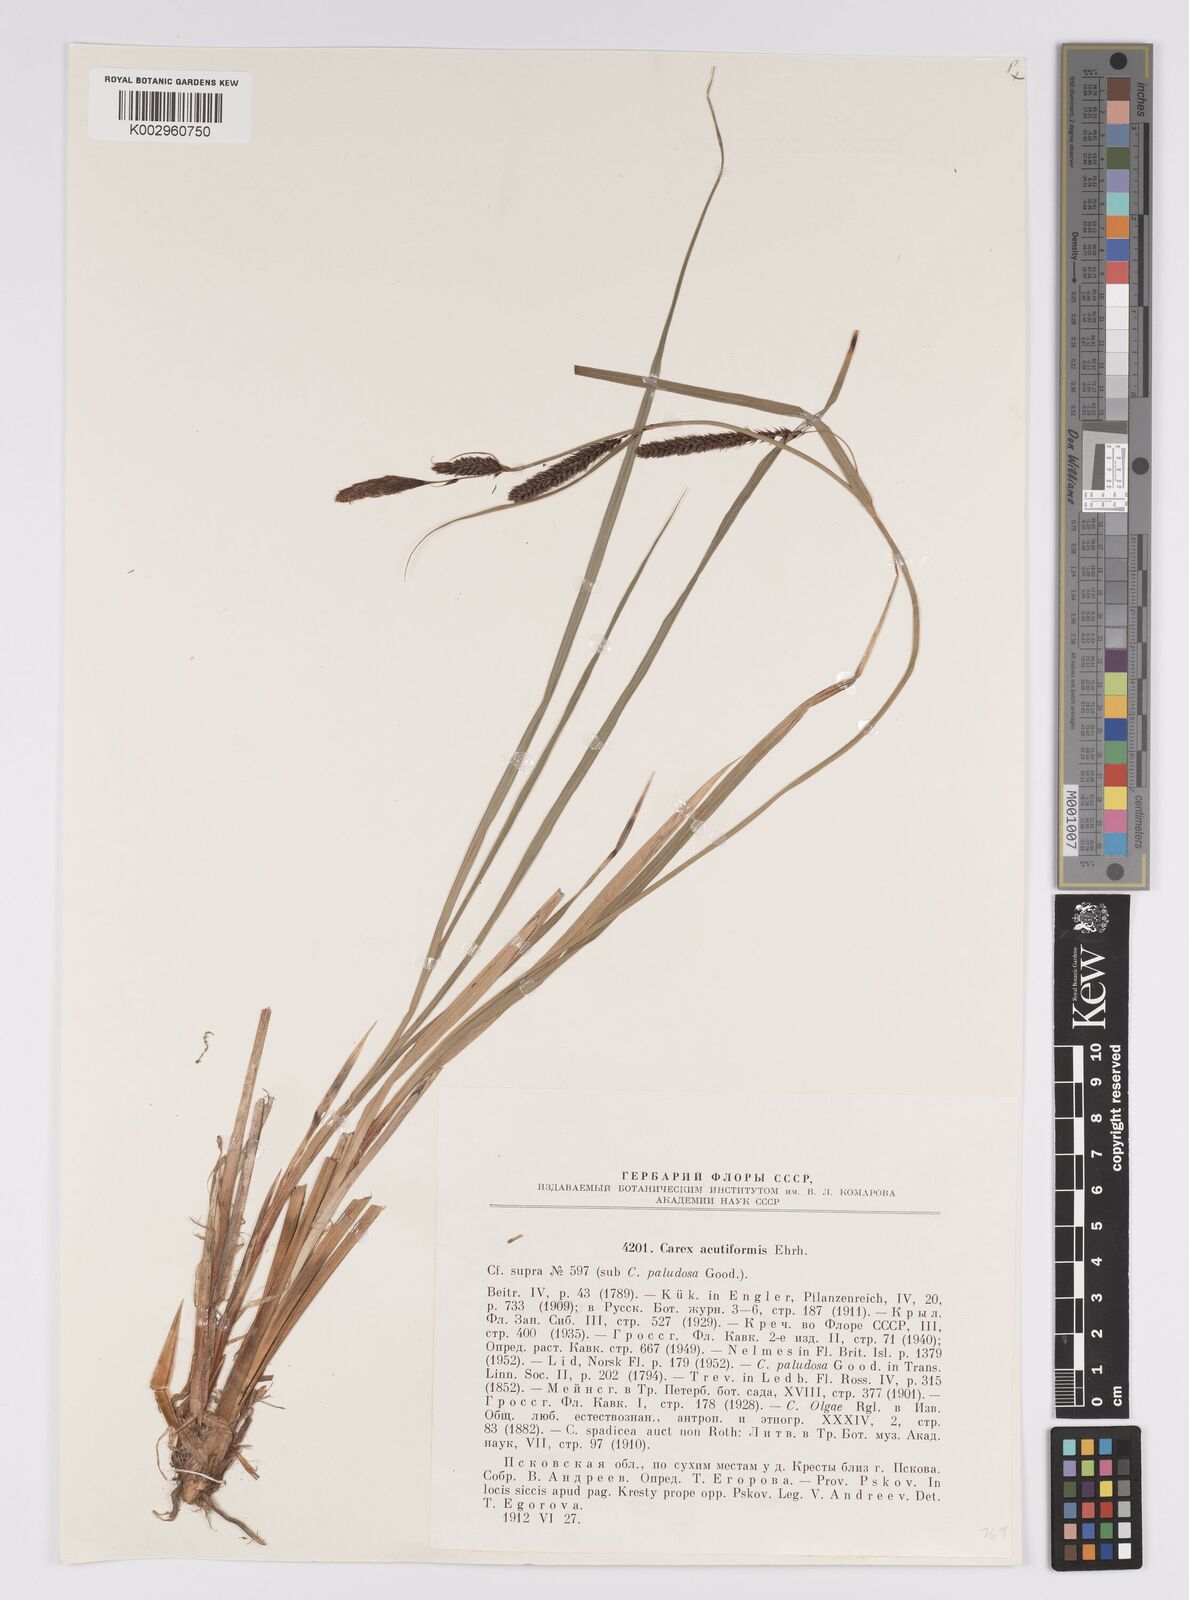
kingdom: Plantae
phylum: Tracheophyta
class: Liliopsida
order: Poales
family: Cyperaceae
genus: Carex
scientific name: Carex acutiformis
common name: Lesser pond-sedge
